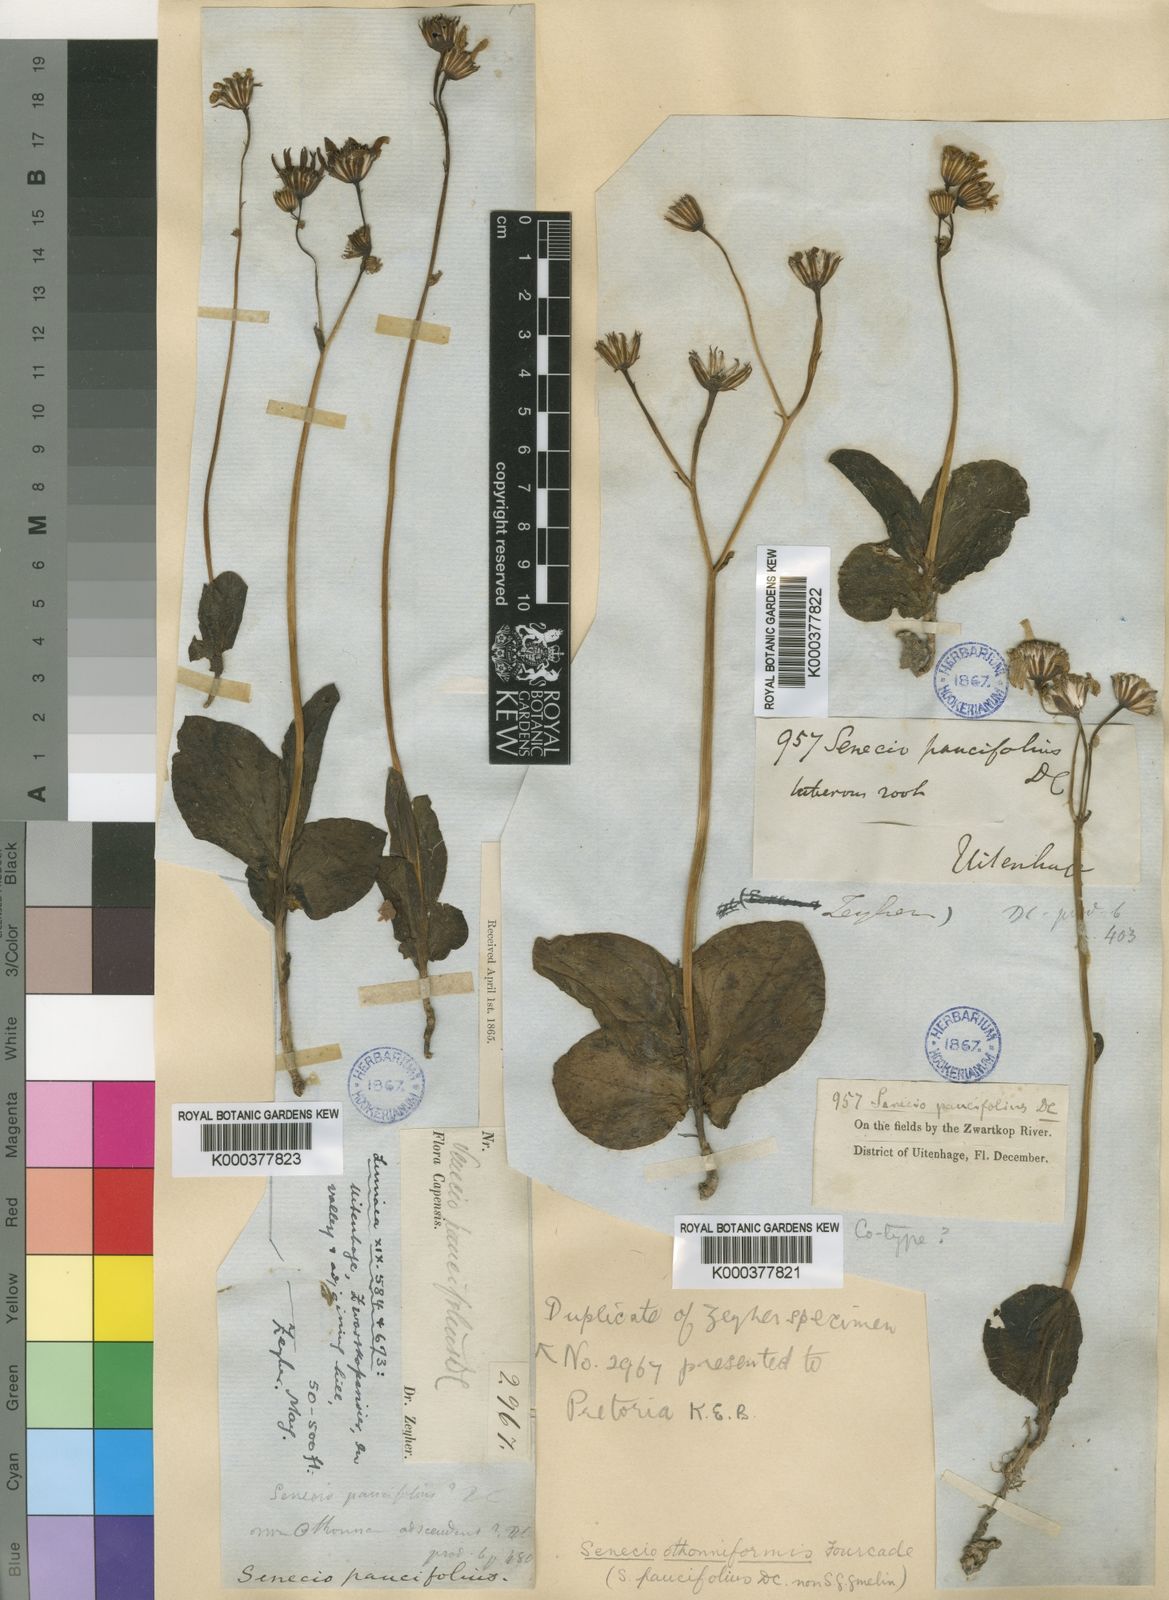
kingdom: Plantae
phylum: Tracheophyta
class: Magnoliopsida
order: Asterales
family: Asteraceae
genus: Senecio
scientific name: Senecio ruwenzoriensis
